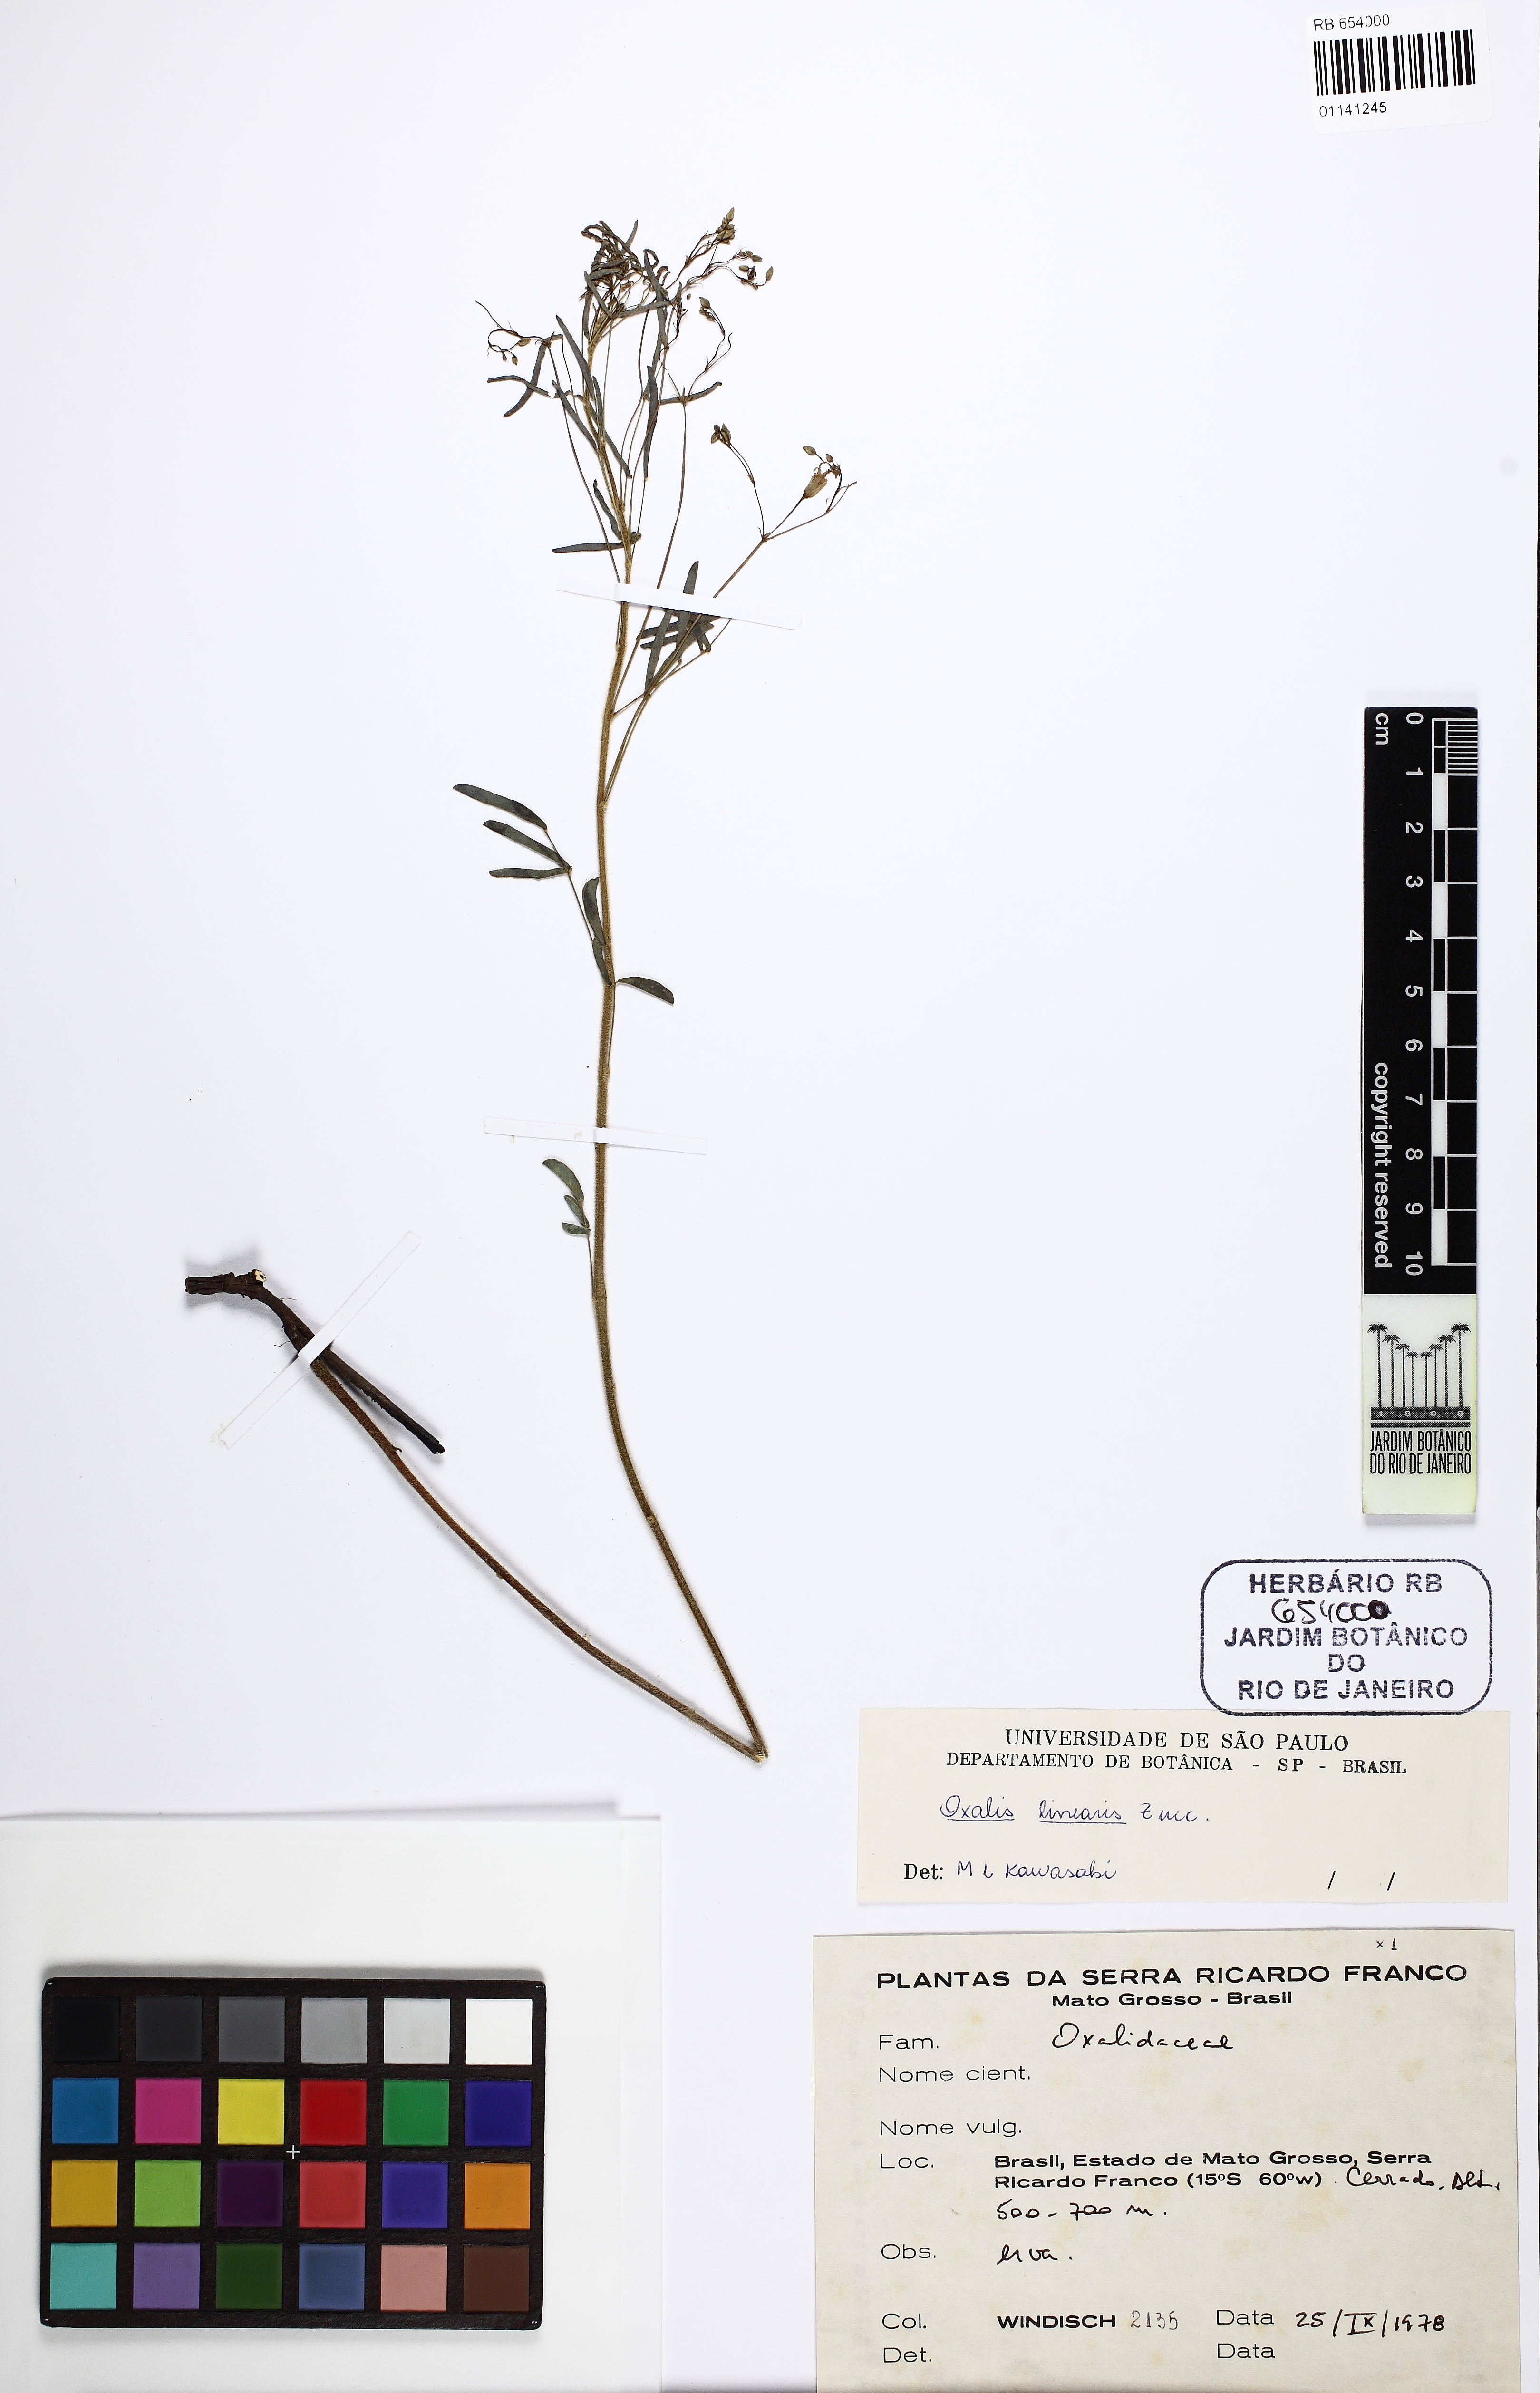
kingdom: Plantae
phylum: Tracheophyta
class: Magnoliopsida
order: Oxalidales
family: Oxalidaceae
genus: Oxalis
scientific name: Oxalis linearis
